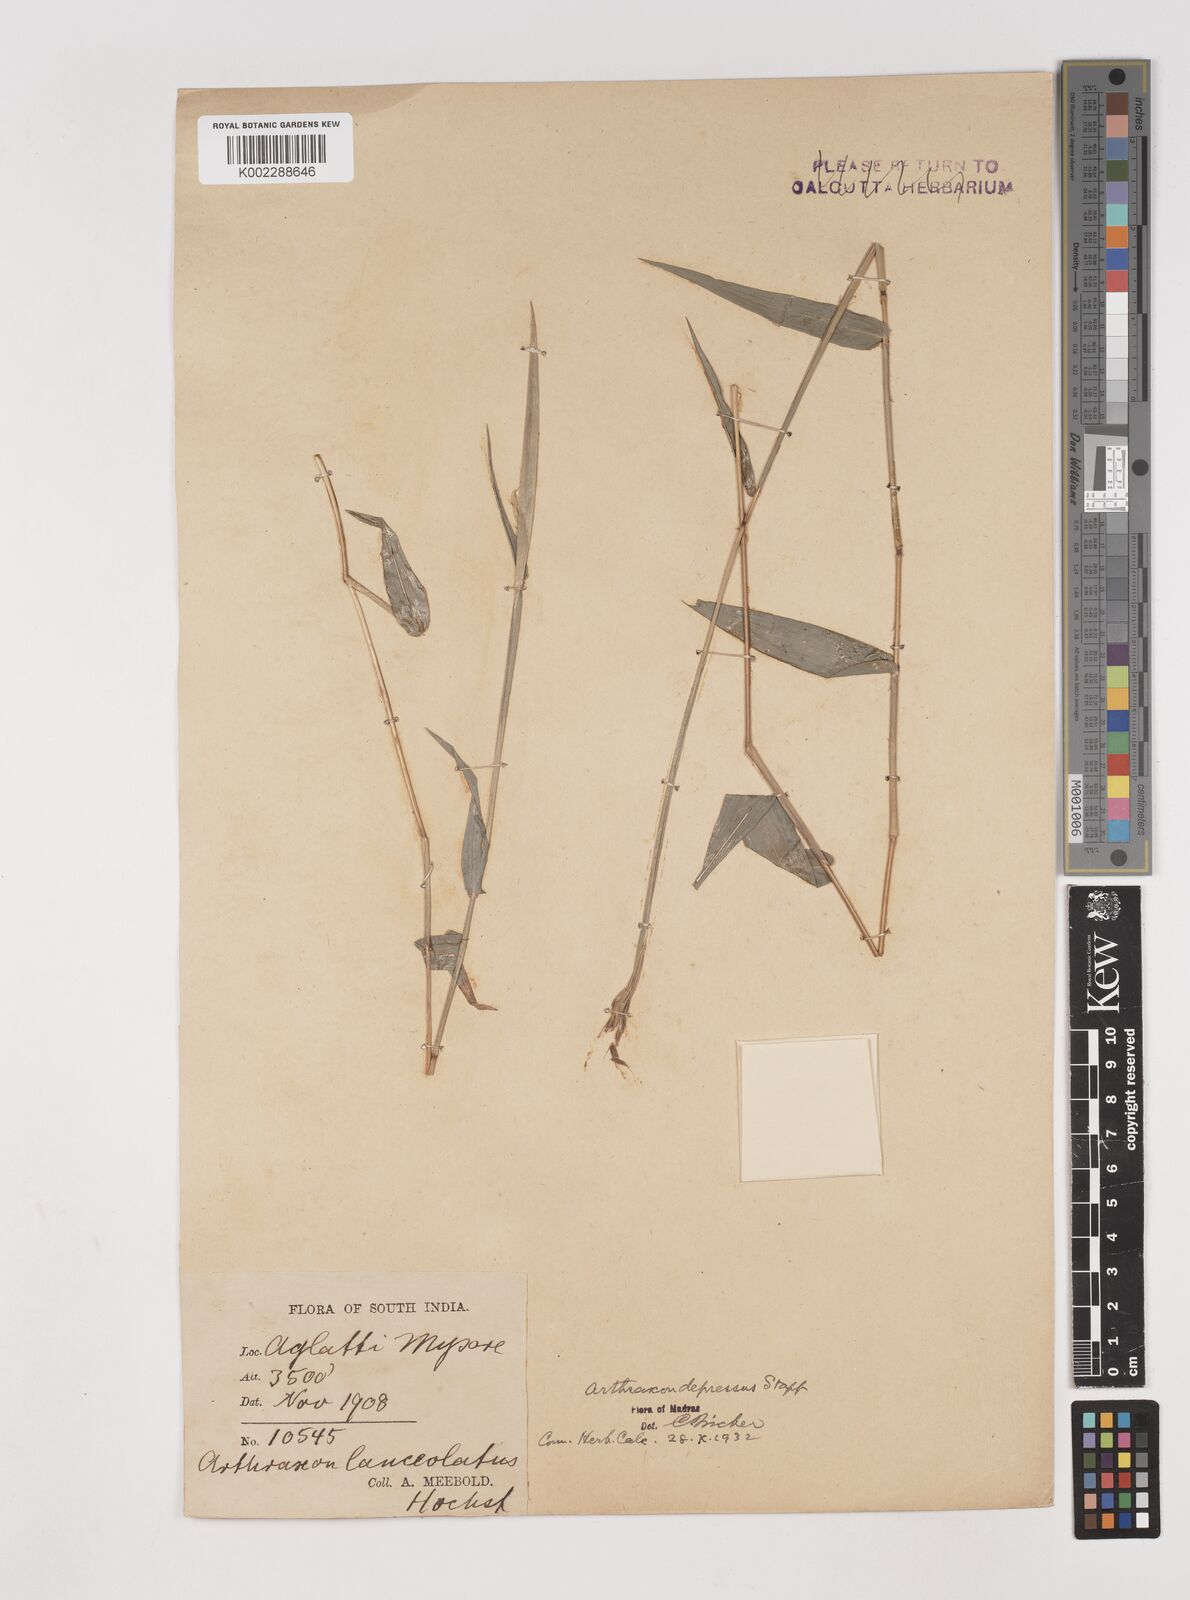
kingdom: Plantae
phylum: Tracheophyta
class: Liliopsida
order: Poales
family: Poaceae
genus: Arthraxon
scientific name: Arthraxon depressus
